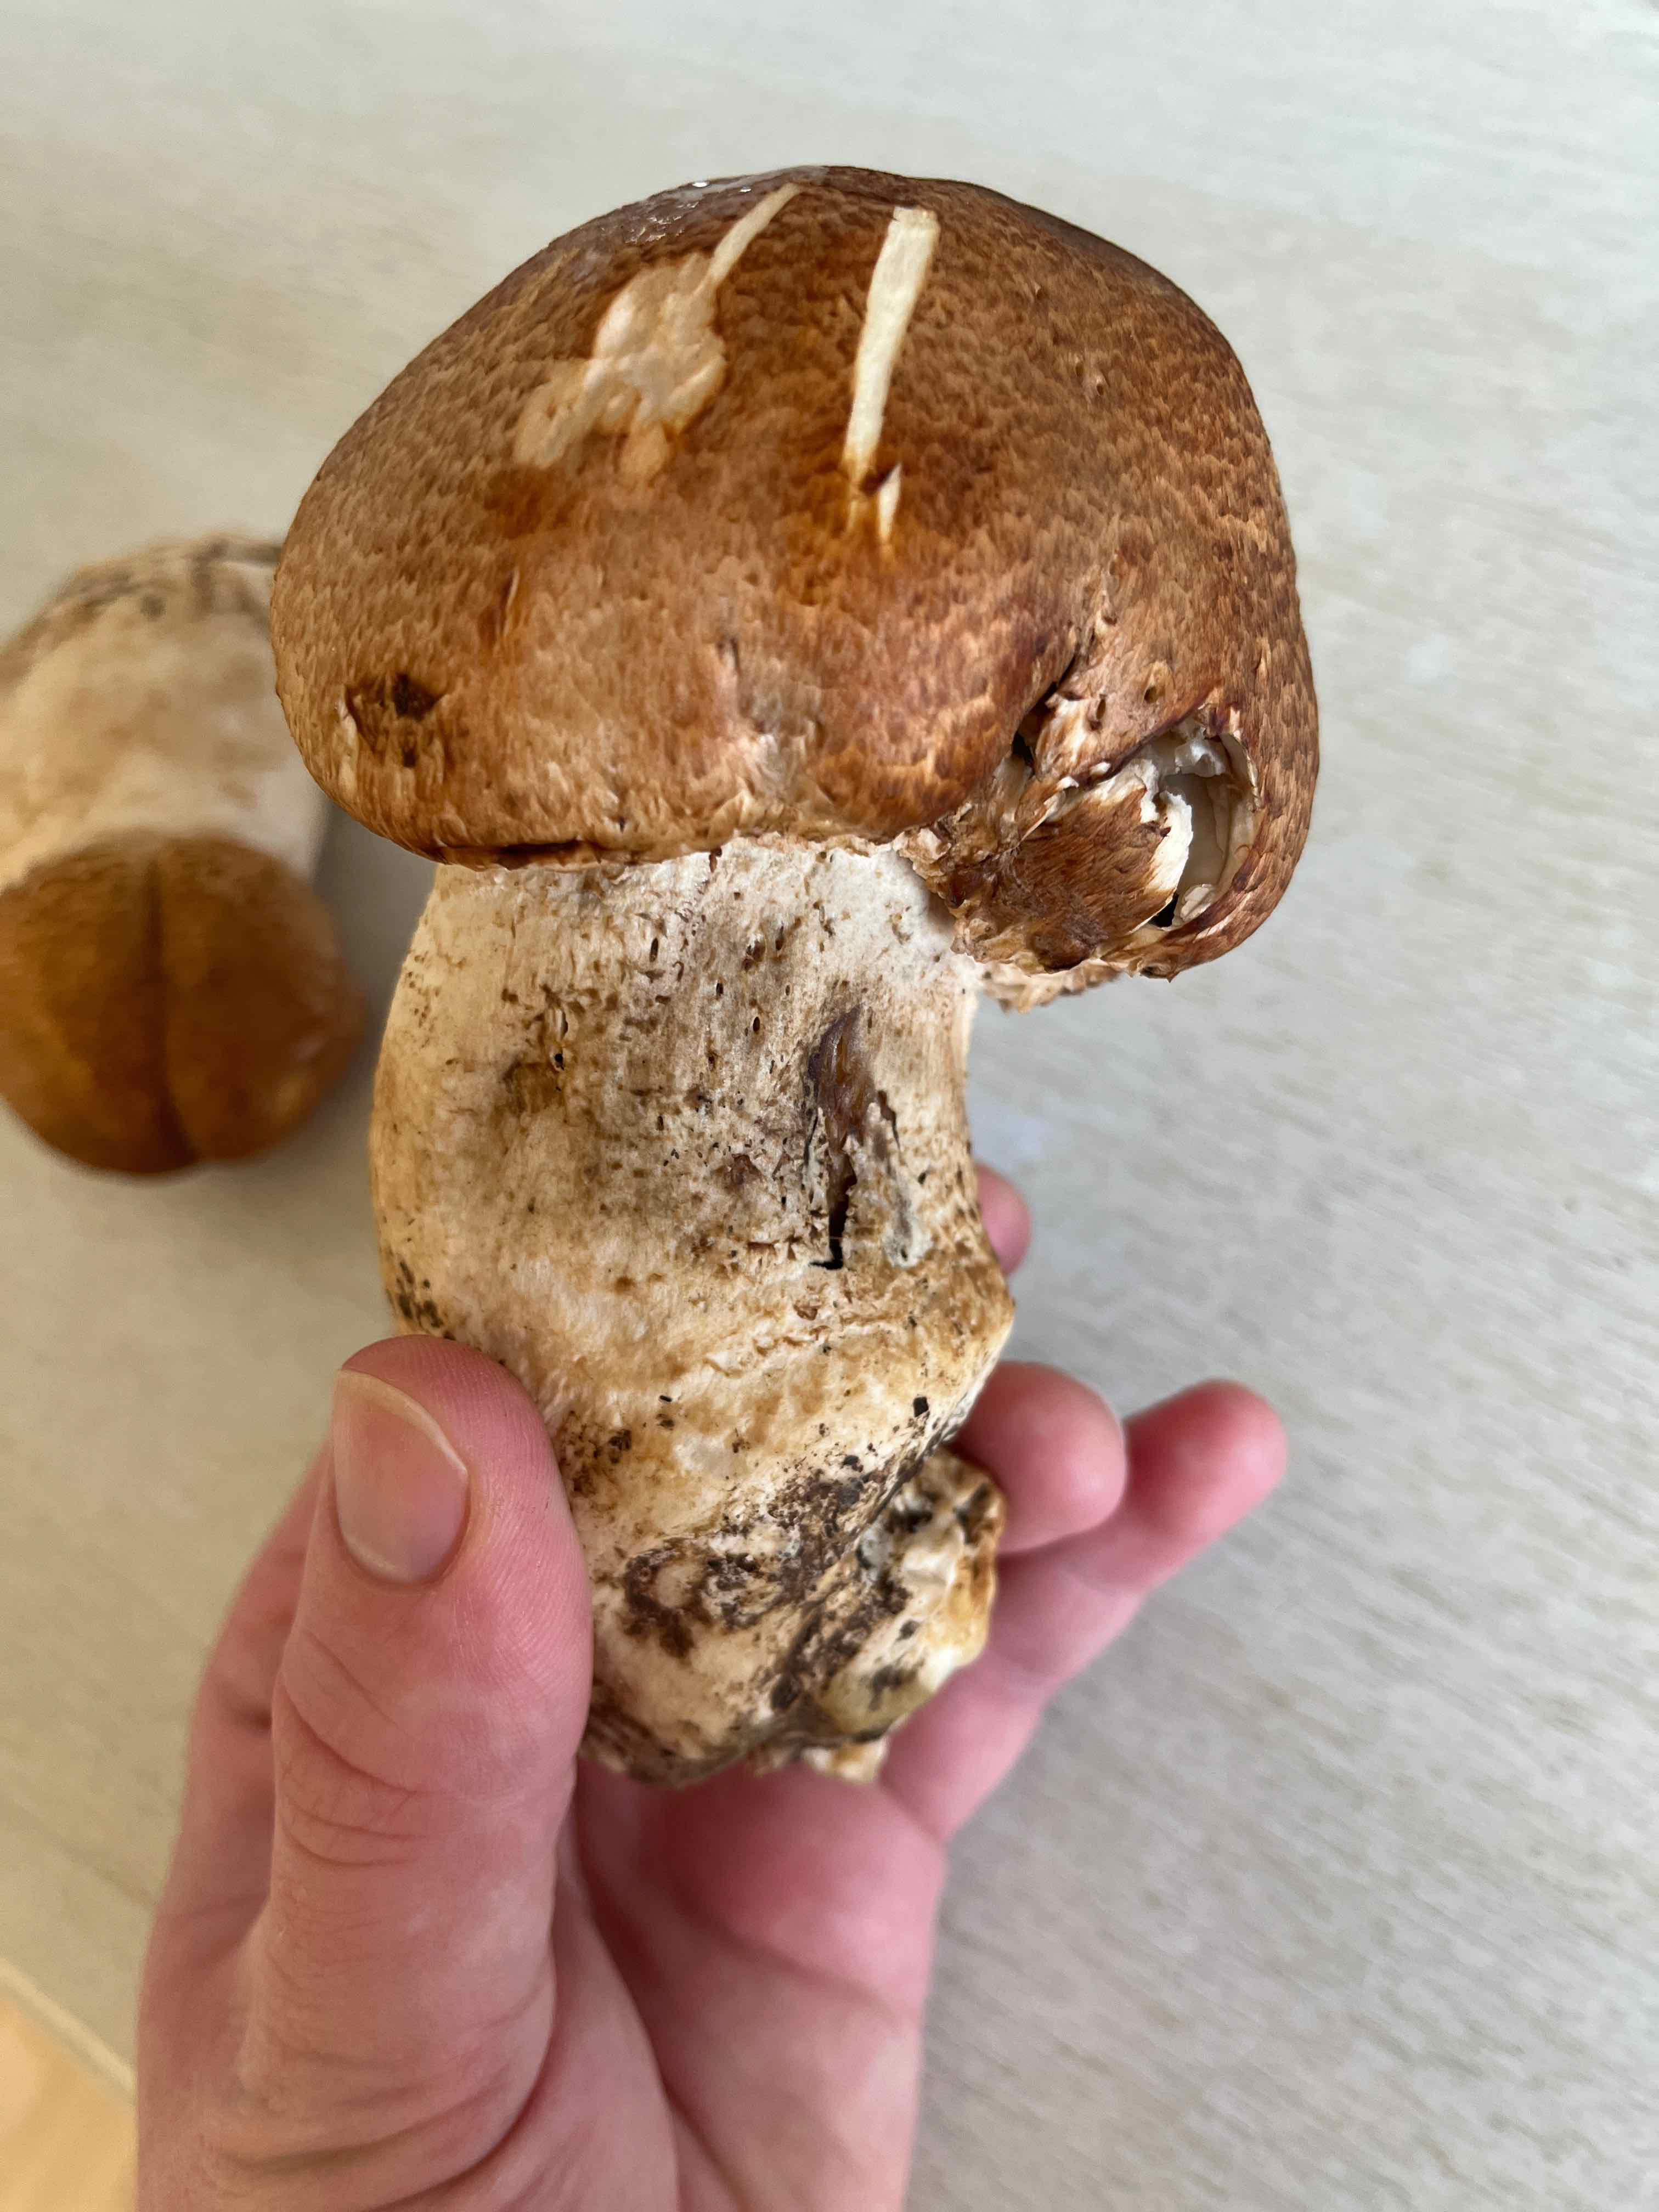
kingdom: Fungi
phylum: Basidiomycota
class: Agaricomycetes
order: Agaricales
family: Agaricaceae
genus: Agaricus
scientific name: Agaricus augustus
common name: prægtig champignon
